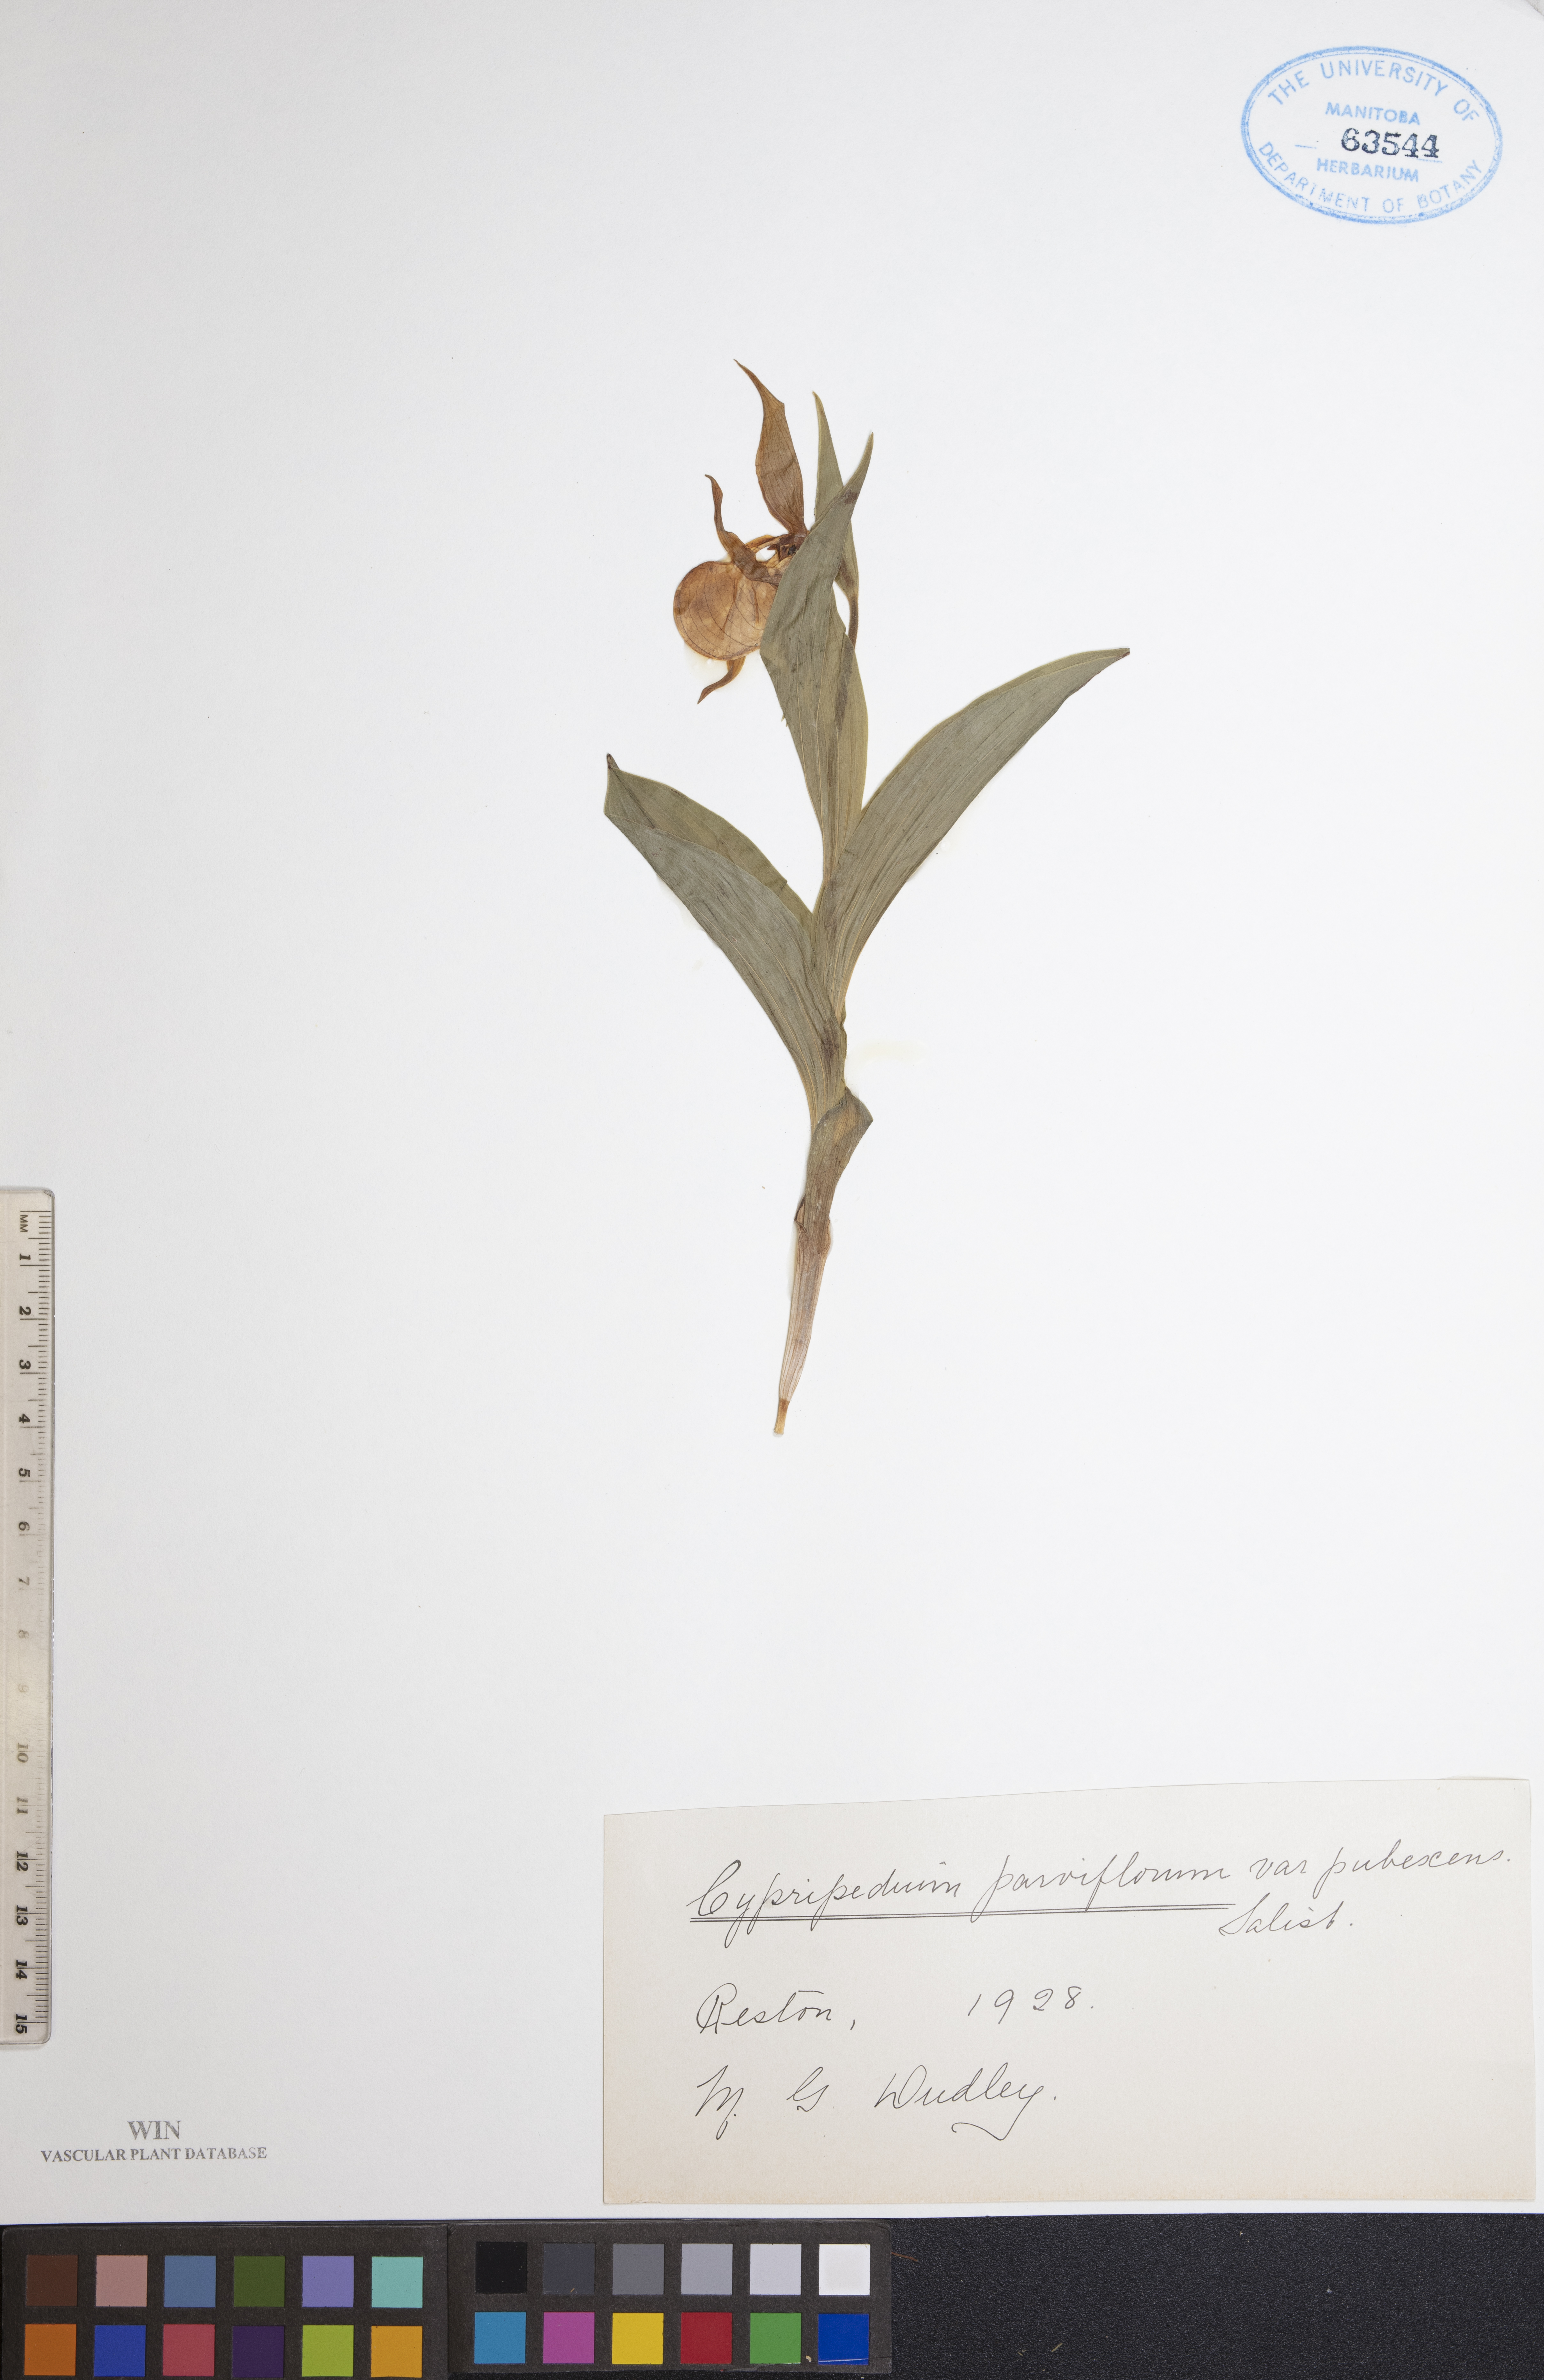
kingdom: Plantae
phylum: Tracheophyta
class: Liliopsida
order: Asparagales
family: Orchidaceae
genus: Cypripedium
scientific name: Cypripedium parviflorum
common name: American yellow lady's-slipper
